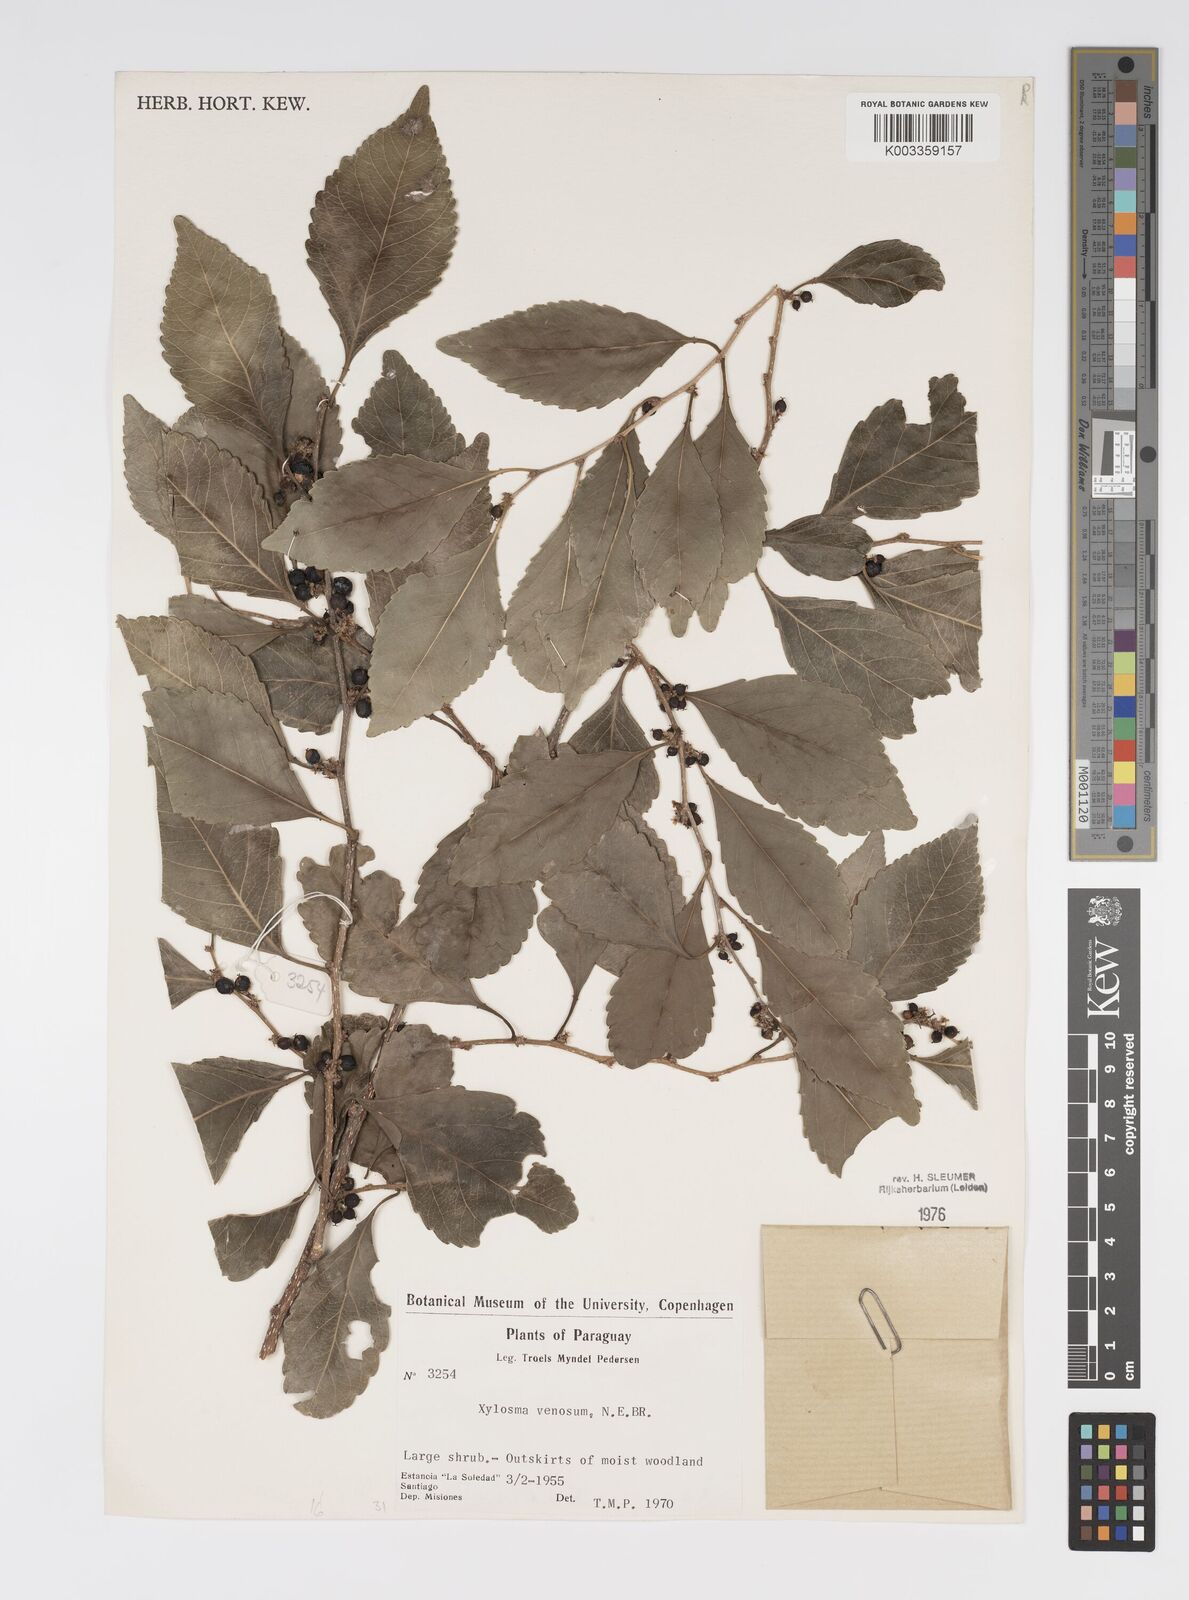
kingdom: Plantae
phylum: Tracheophyta
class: Magnoliopsida
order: Malpighiales
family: Salicaceae
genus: Xylosma
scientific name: Xylosma venosa
